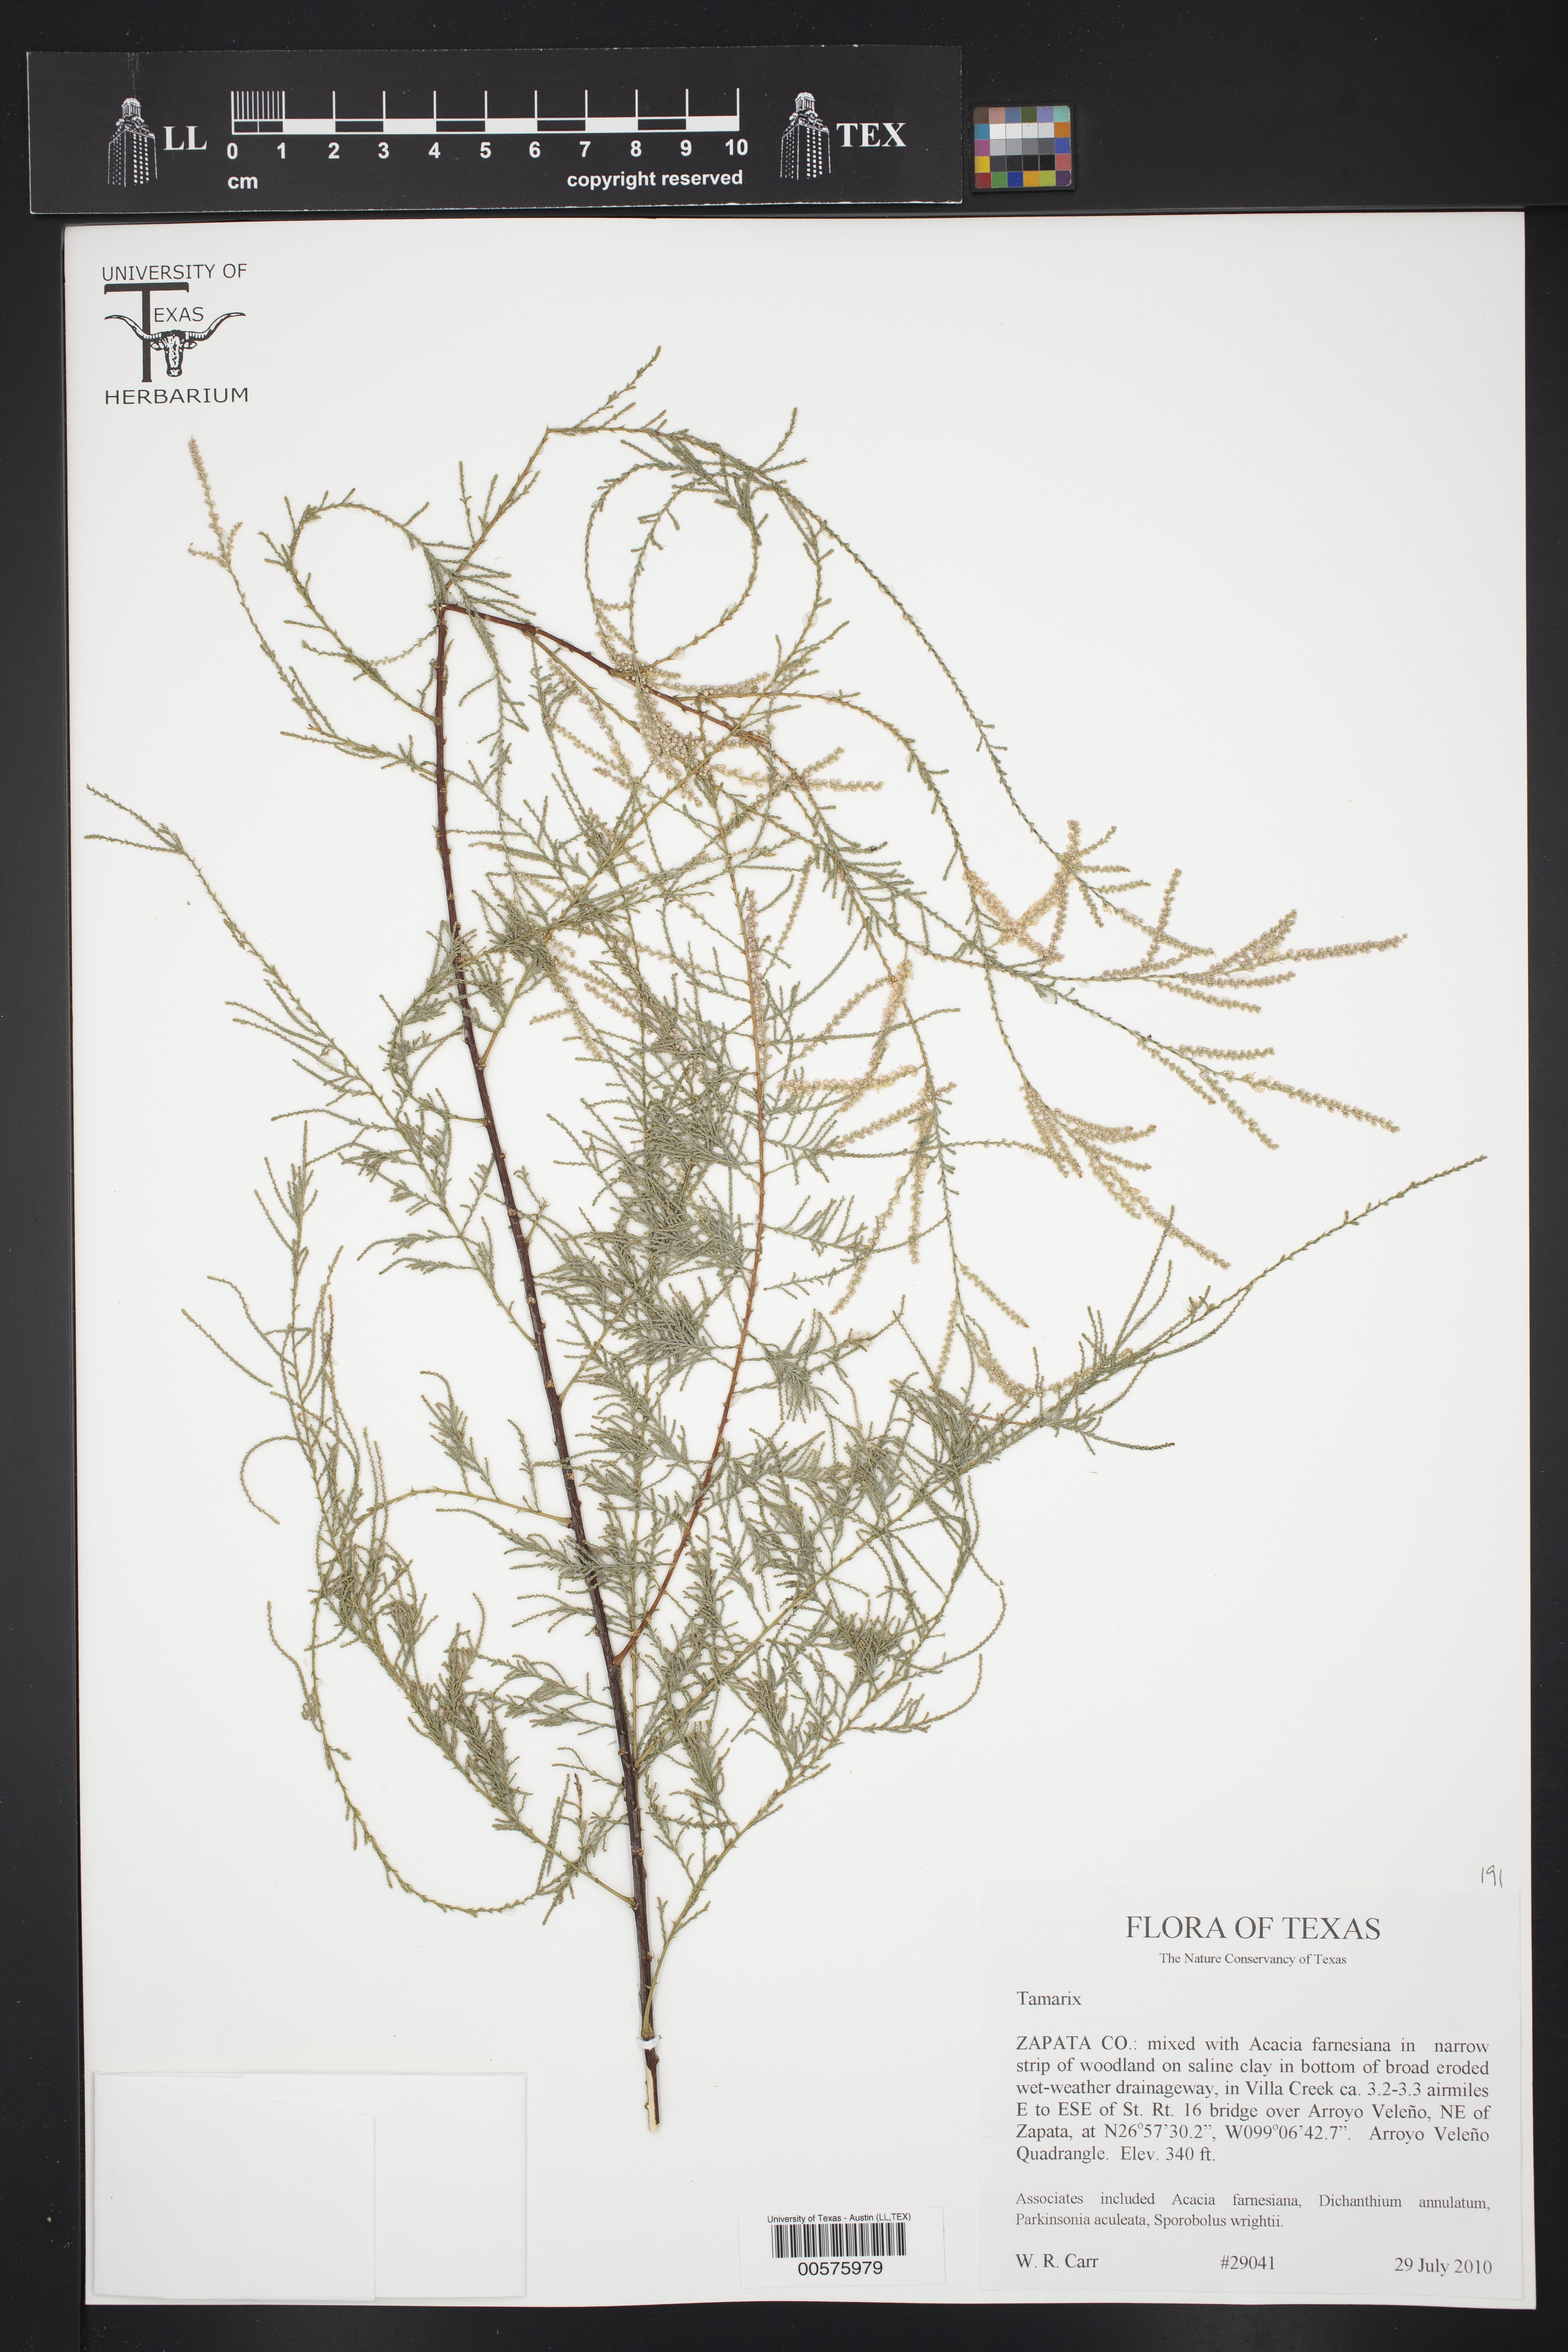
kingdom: Plantae
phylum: Tracheophyta
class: Magnoliopsida
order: Caryophyllales
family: Tamaricaceae
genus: Tamarix
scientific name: Tamarix
